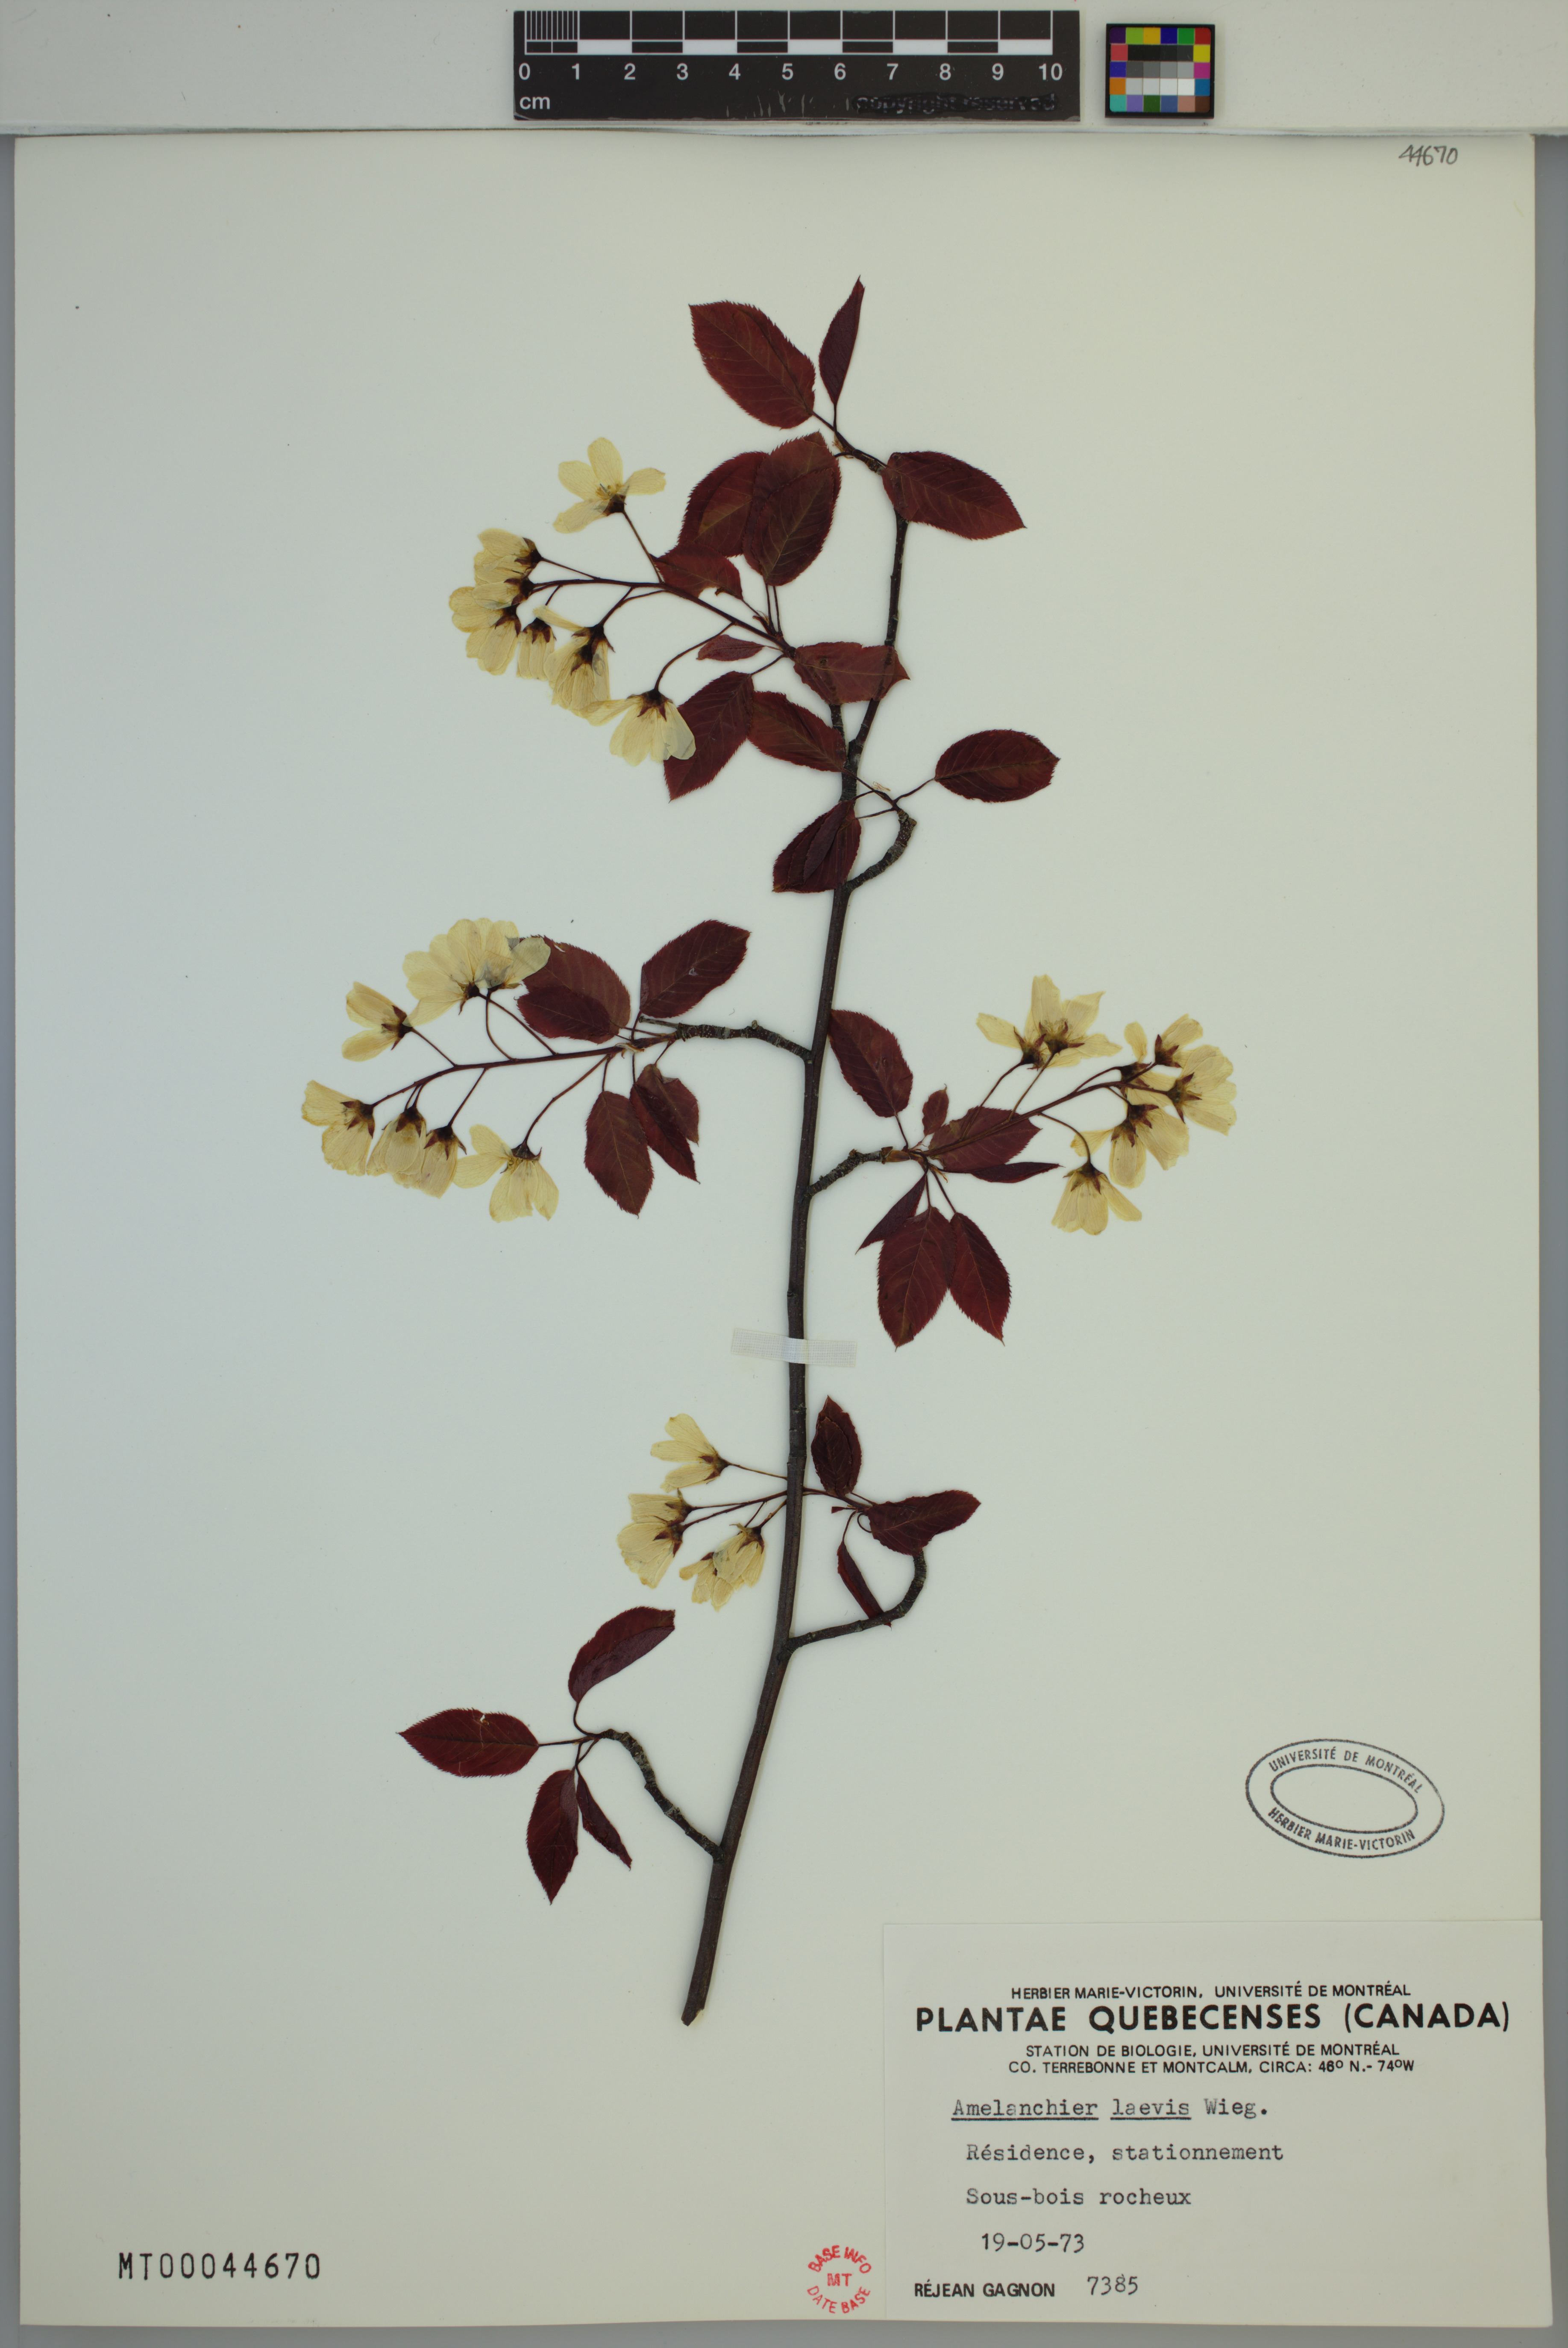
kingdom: Plantae
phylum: Tracheophyta
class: Magnoliopsida
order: Rosales
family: Rosaceae
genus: Amelanchier
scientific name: Amelanchier laevis
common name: Allegheny serviceberry
